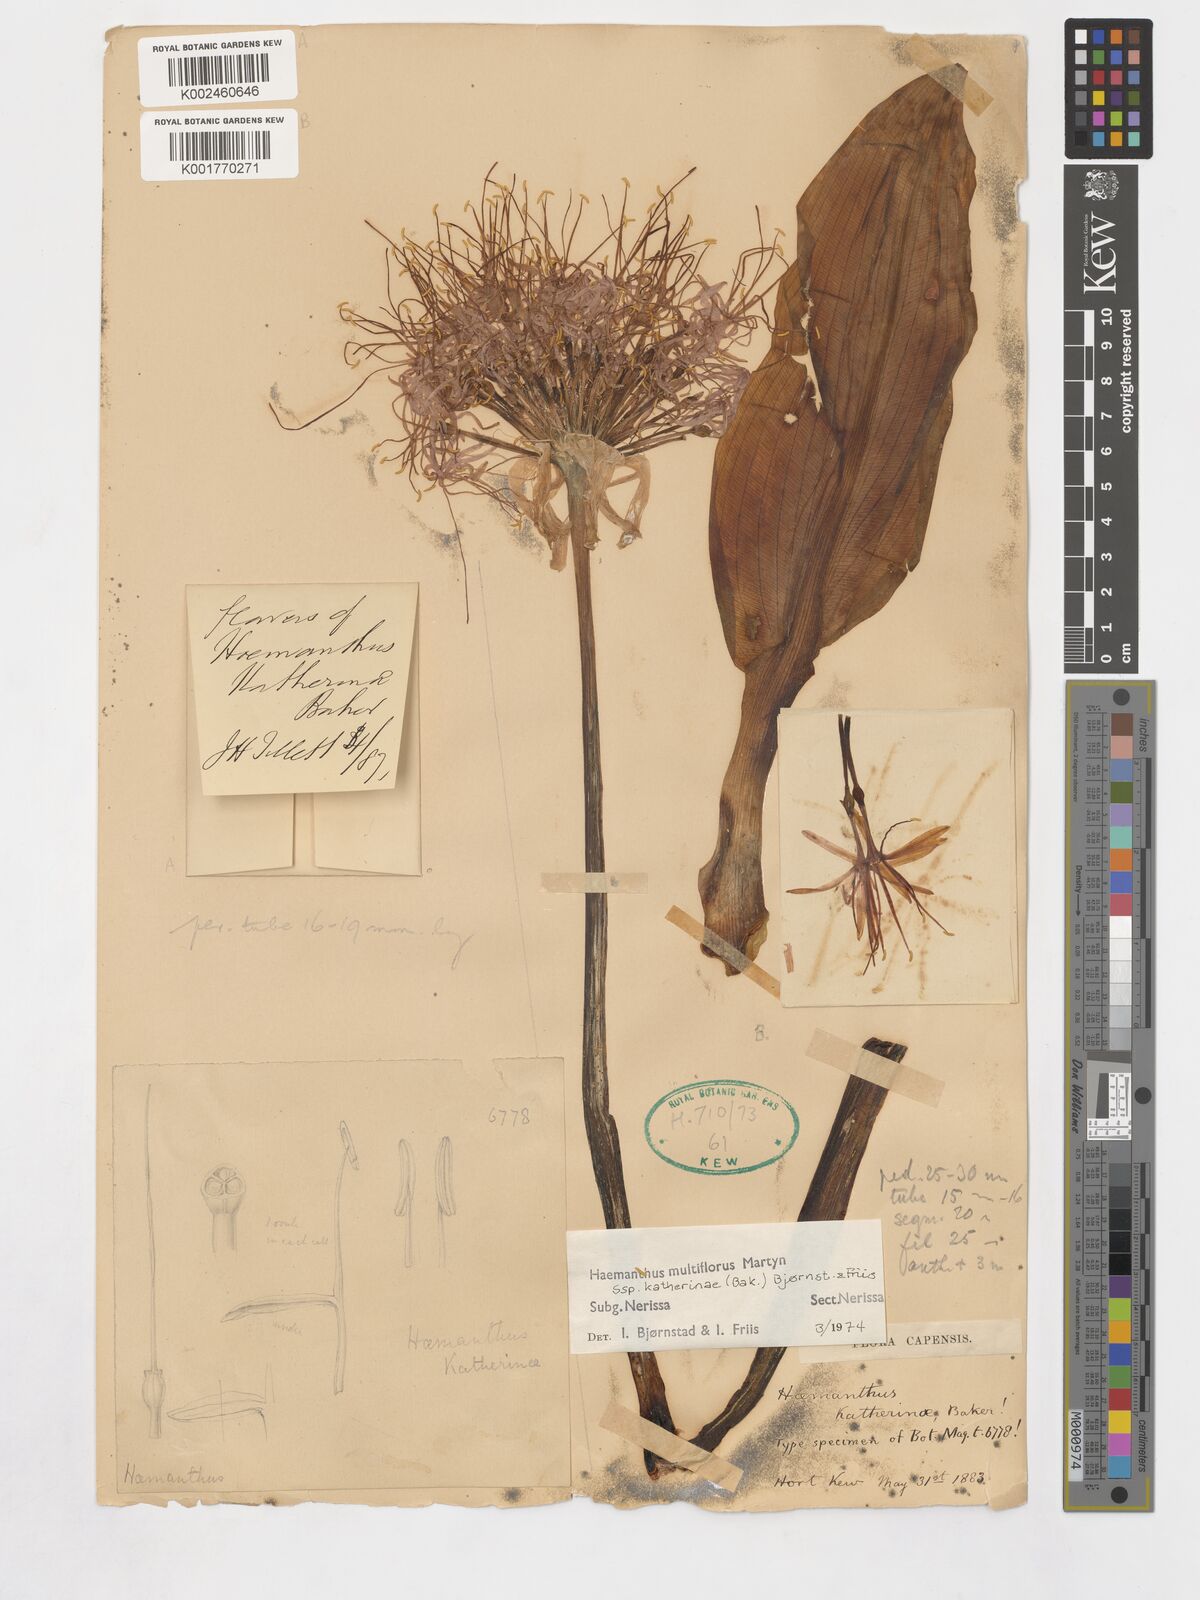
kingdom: Plantae
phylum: Tracheophyta
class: Liliopsida
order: Asparagales
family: Amaryllidaceae
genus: Scadoxus
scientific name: Scadoxus multiflorus
